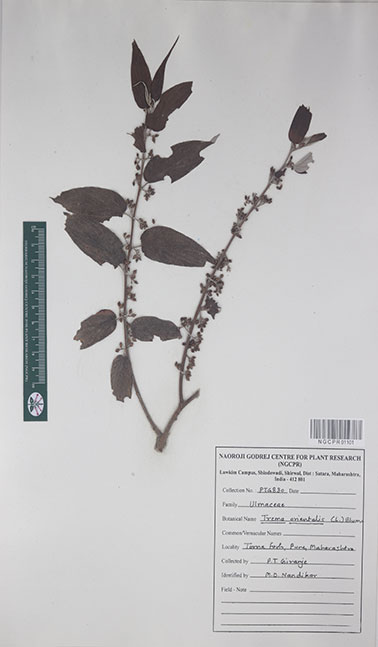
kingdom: Plantae
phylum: Tracheophyta
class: Magnoliopsida
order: Rosales
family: Cannabaceae
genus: Trema
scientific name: Trema orientale
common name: Indian charcoal tree
